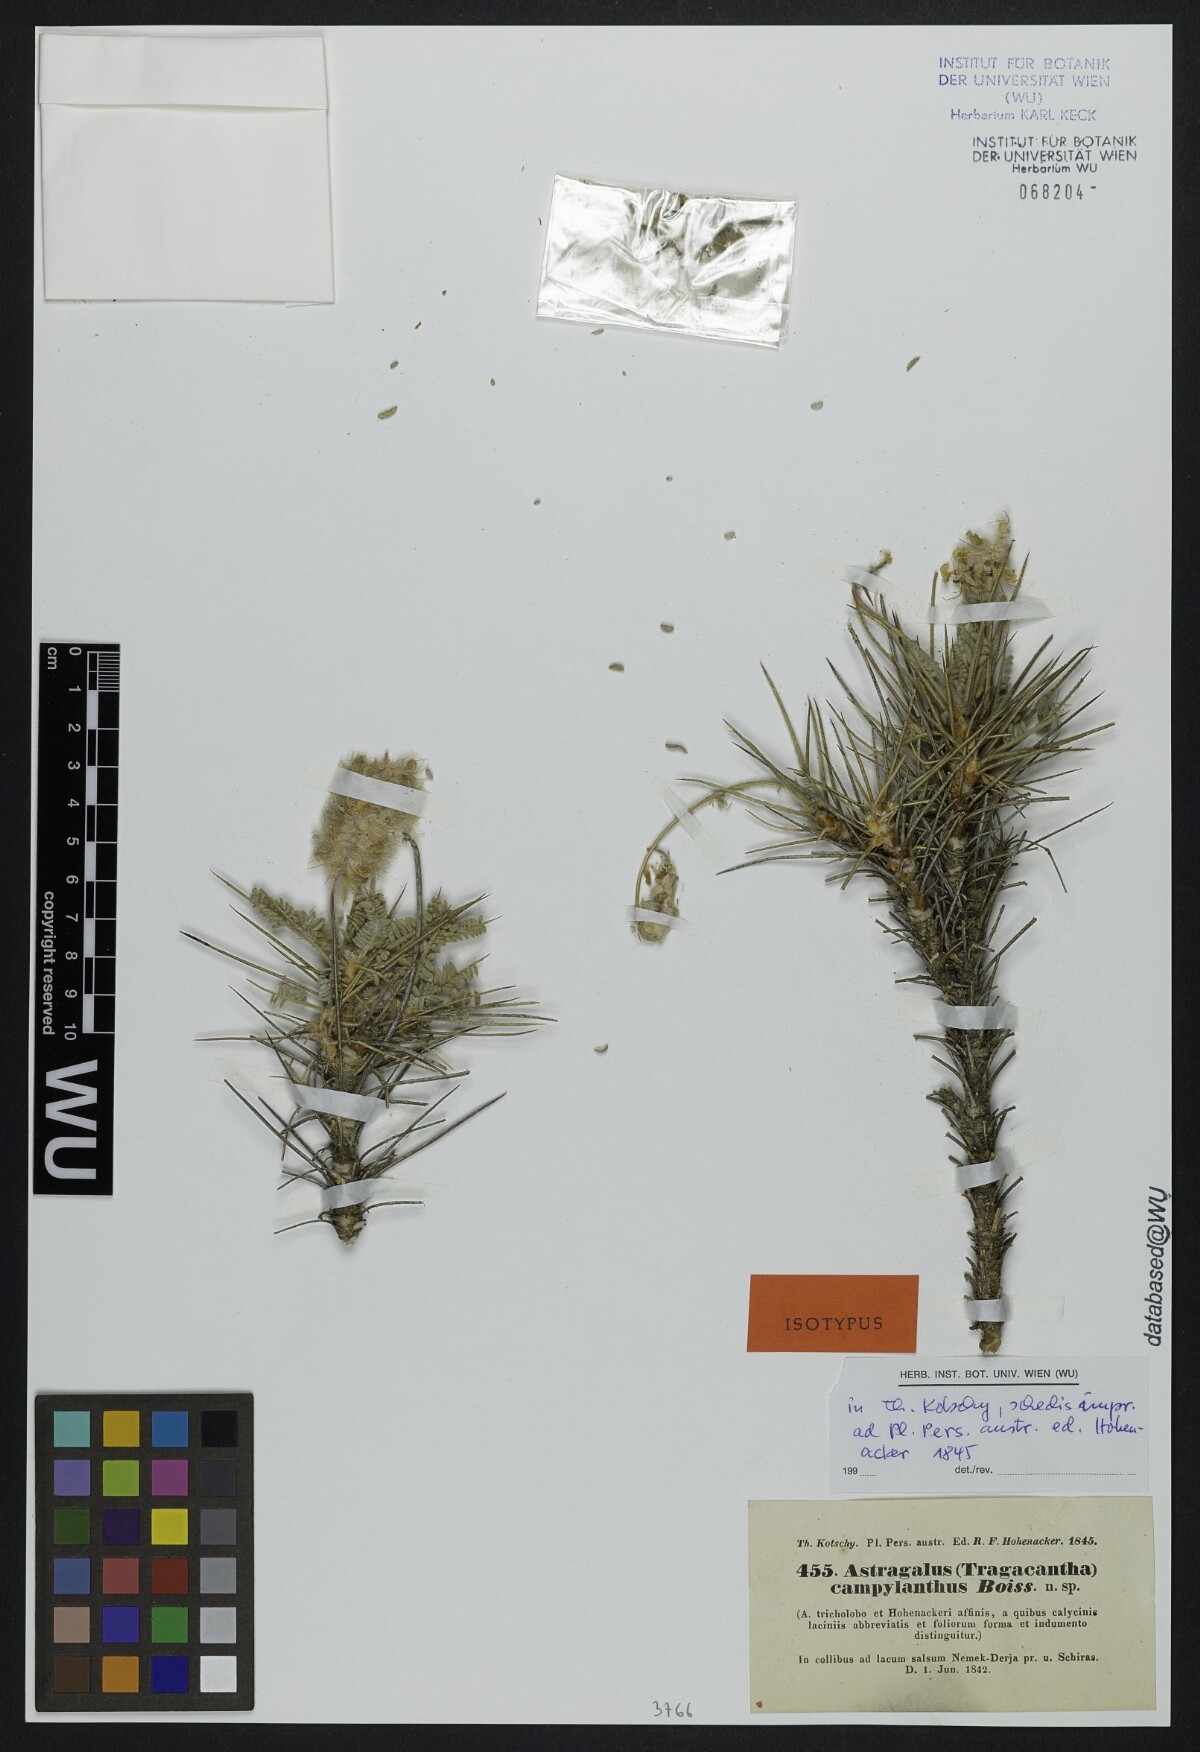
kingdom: Plantae
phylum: Tracheophyta
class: Magnoliopsida
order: Fabales
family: Fabaceae
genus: Astragalus
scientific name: Astragalus campylanthus
